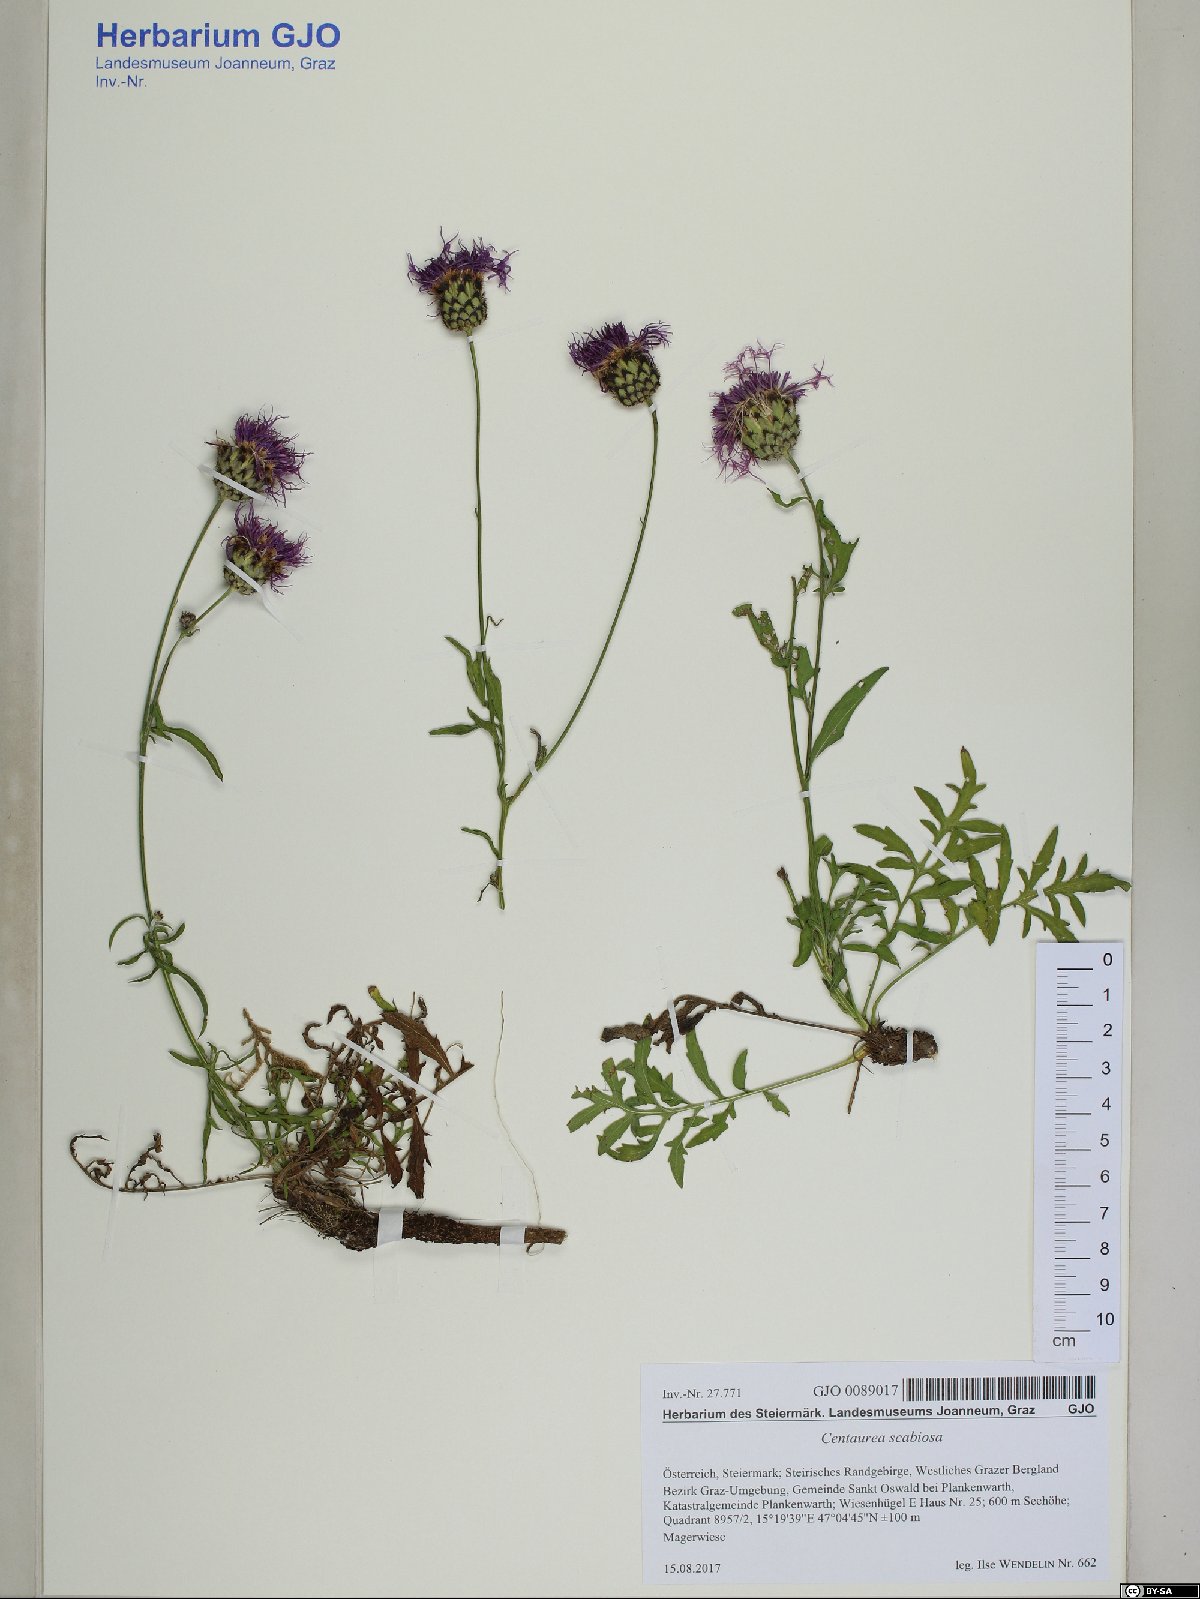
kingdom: Plantae
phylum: Tracheophyta
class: Magnoliopsida
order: Asterales
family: Asteraceae
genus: Centaurea
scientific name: Centaurea scabiosa
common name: Greater knapweed
